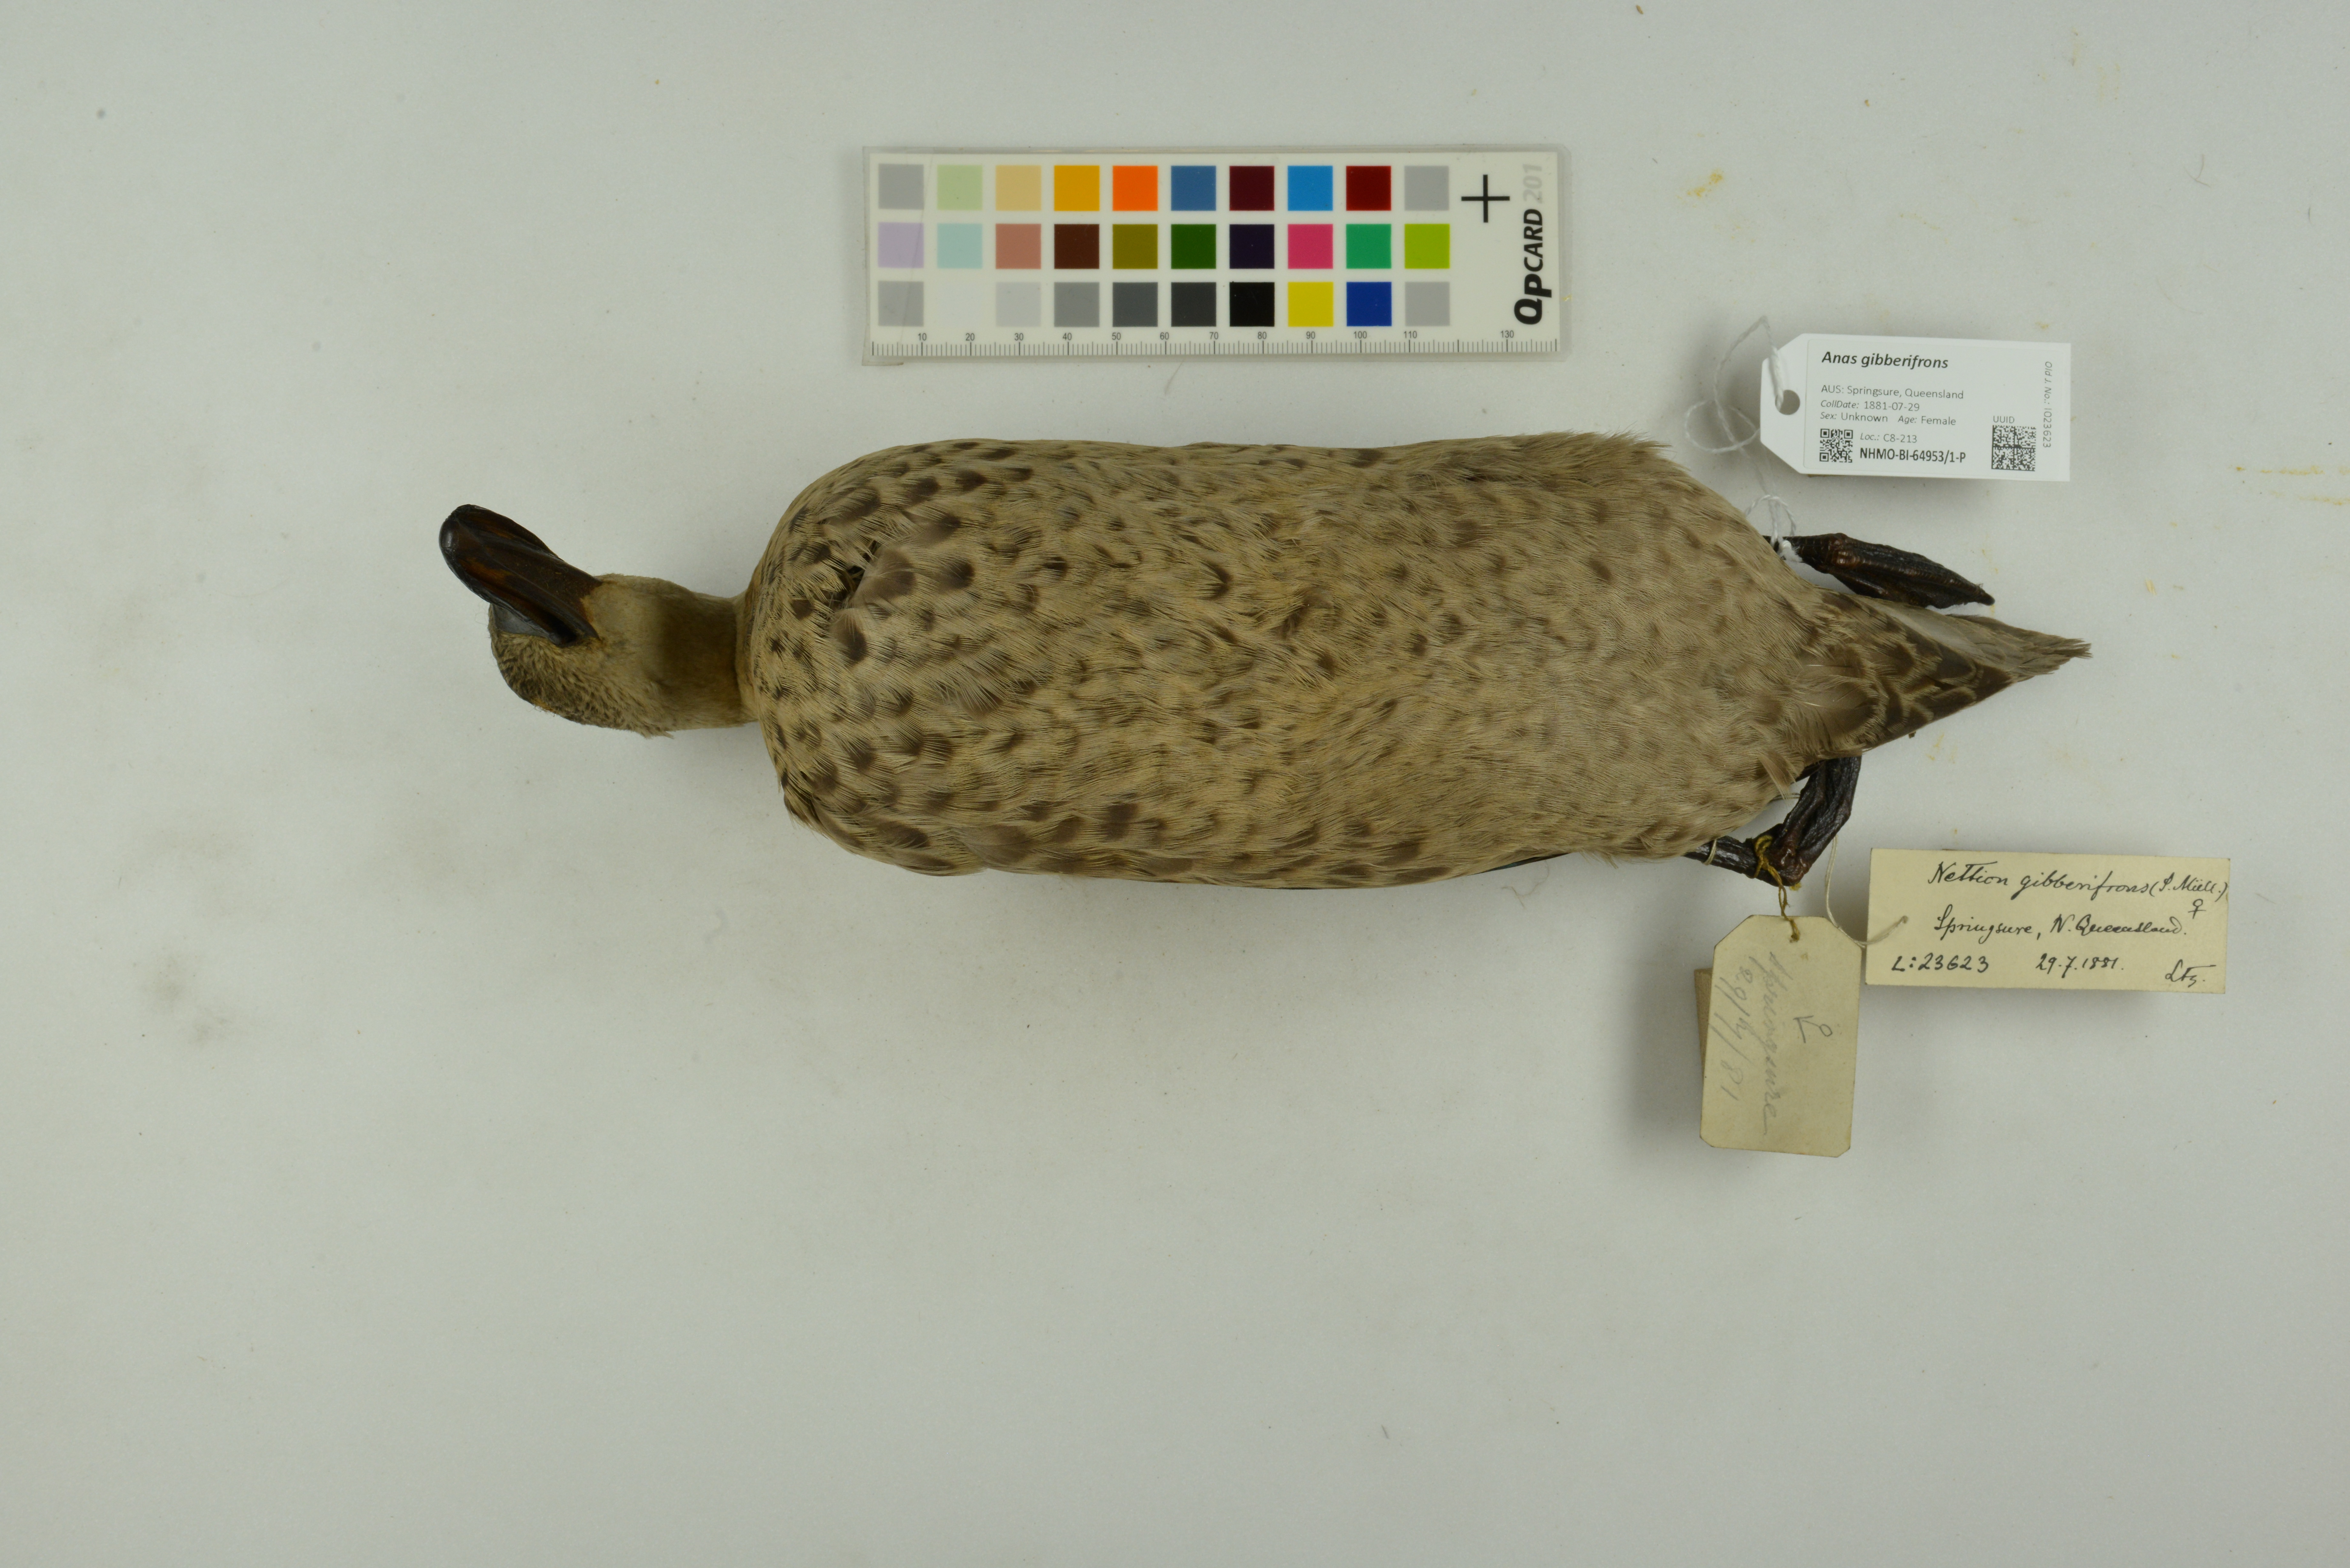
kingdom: Animalia
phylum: Chordata
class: Aves
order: Anseriformes
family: Anatidae
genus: Anas
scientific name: Anas gibberifrons
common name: Sunda teal
